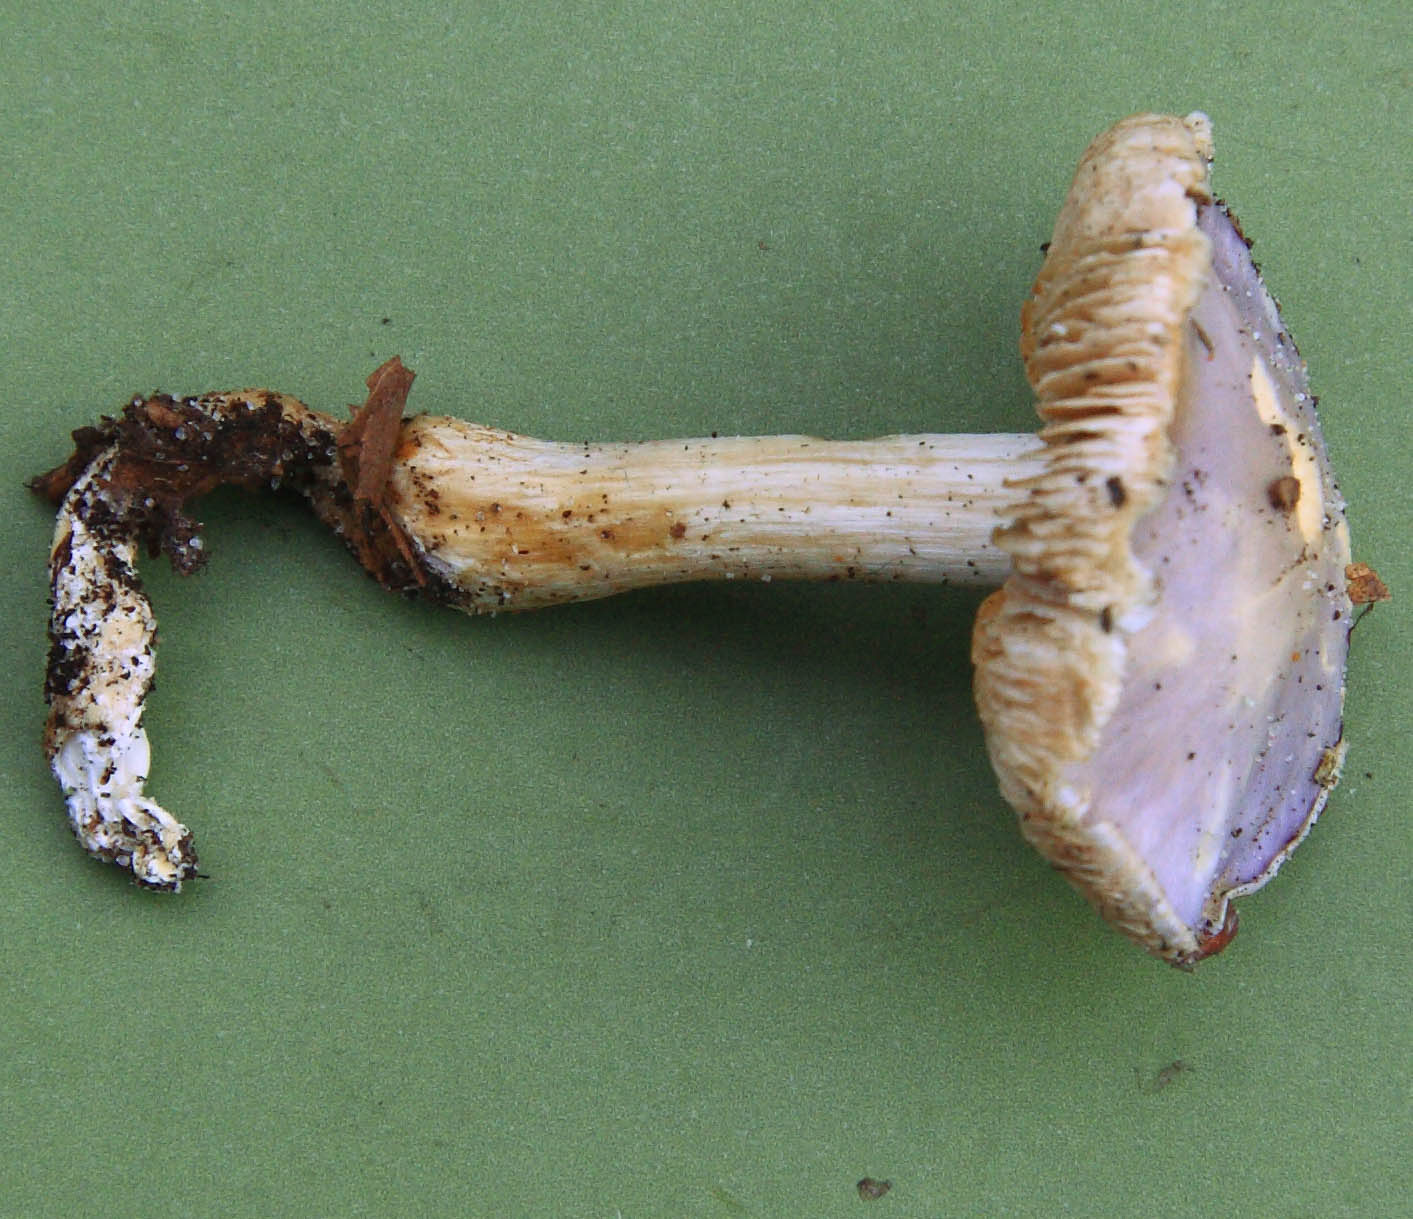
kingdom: Fungi
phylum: Basidiomycota
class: Agaricomycetes
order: Agaricales
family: Cortinariaceae
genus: Thaxterogaster
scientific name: Thaxterogaster croceocoeruleus
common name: blågullig slørhat
